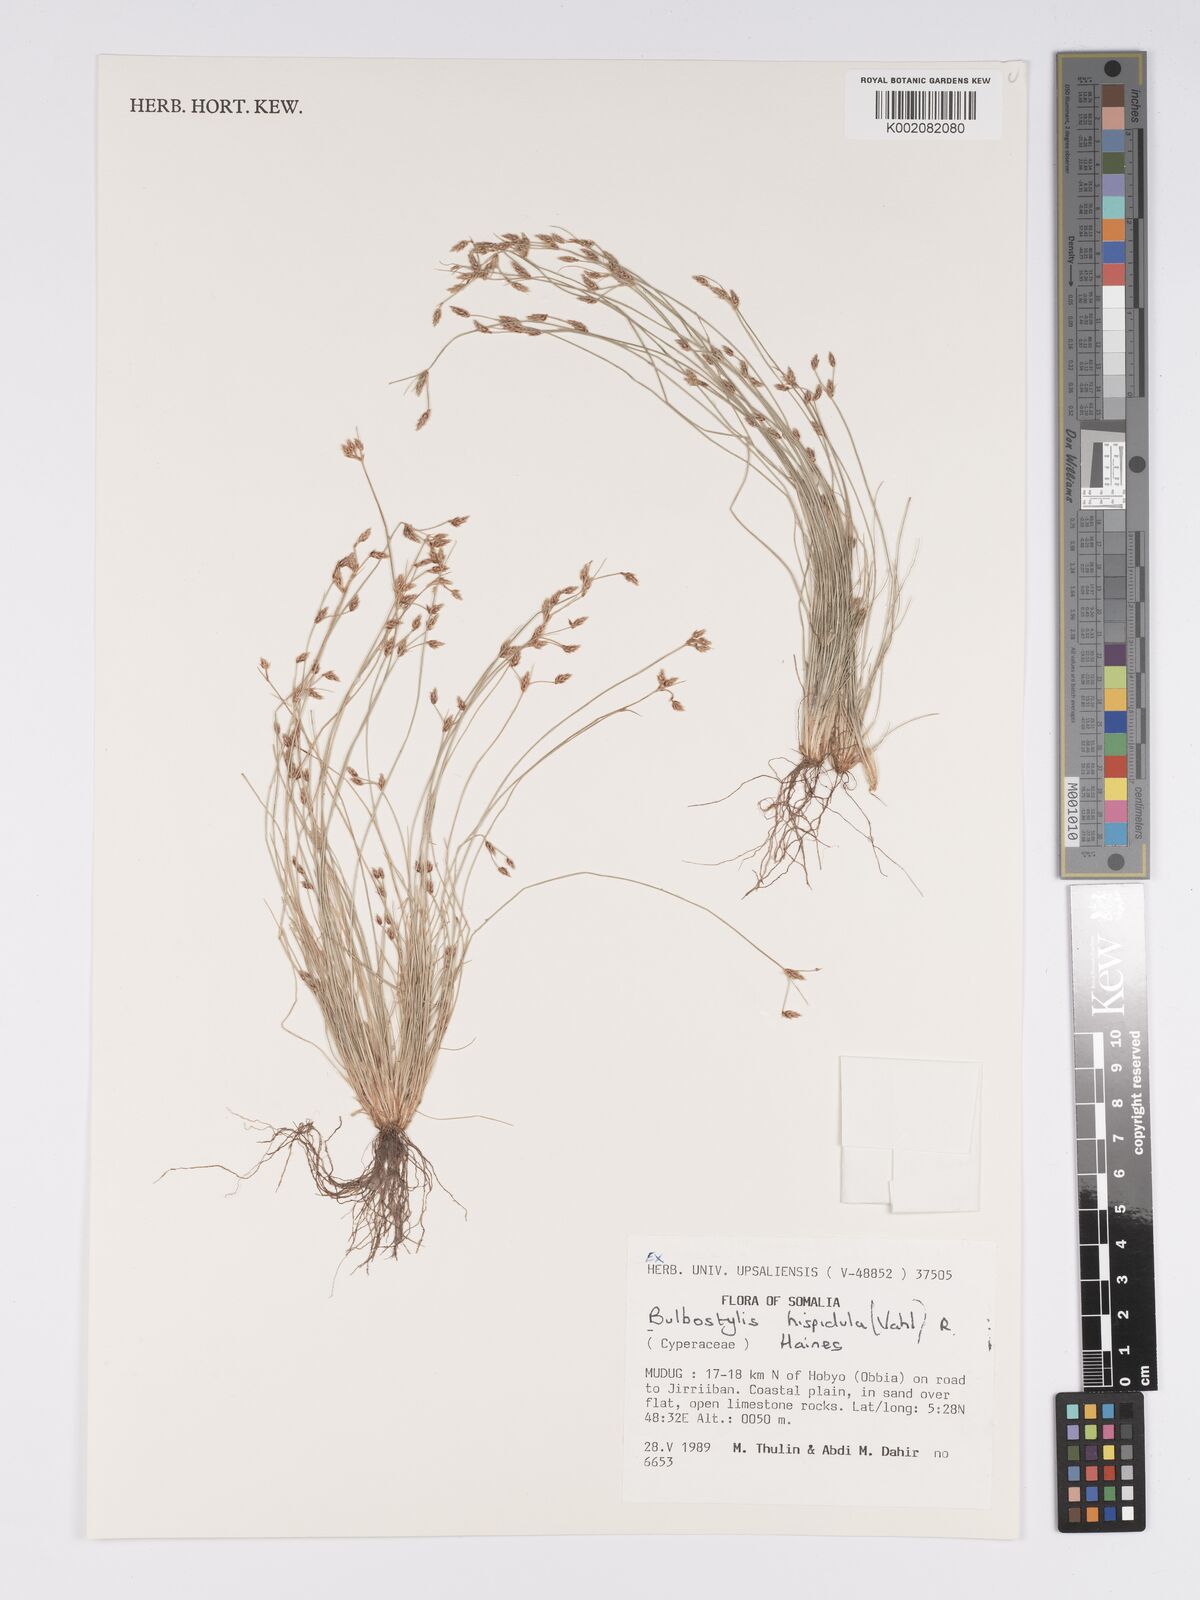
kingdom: Plantae
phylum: Tracheophyta
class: Liliopsida
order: Poales
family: Cyperaceae
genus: Bulbostylis
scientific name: Bulbostylis hispidula
